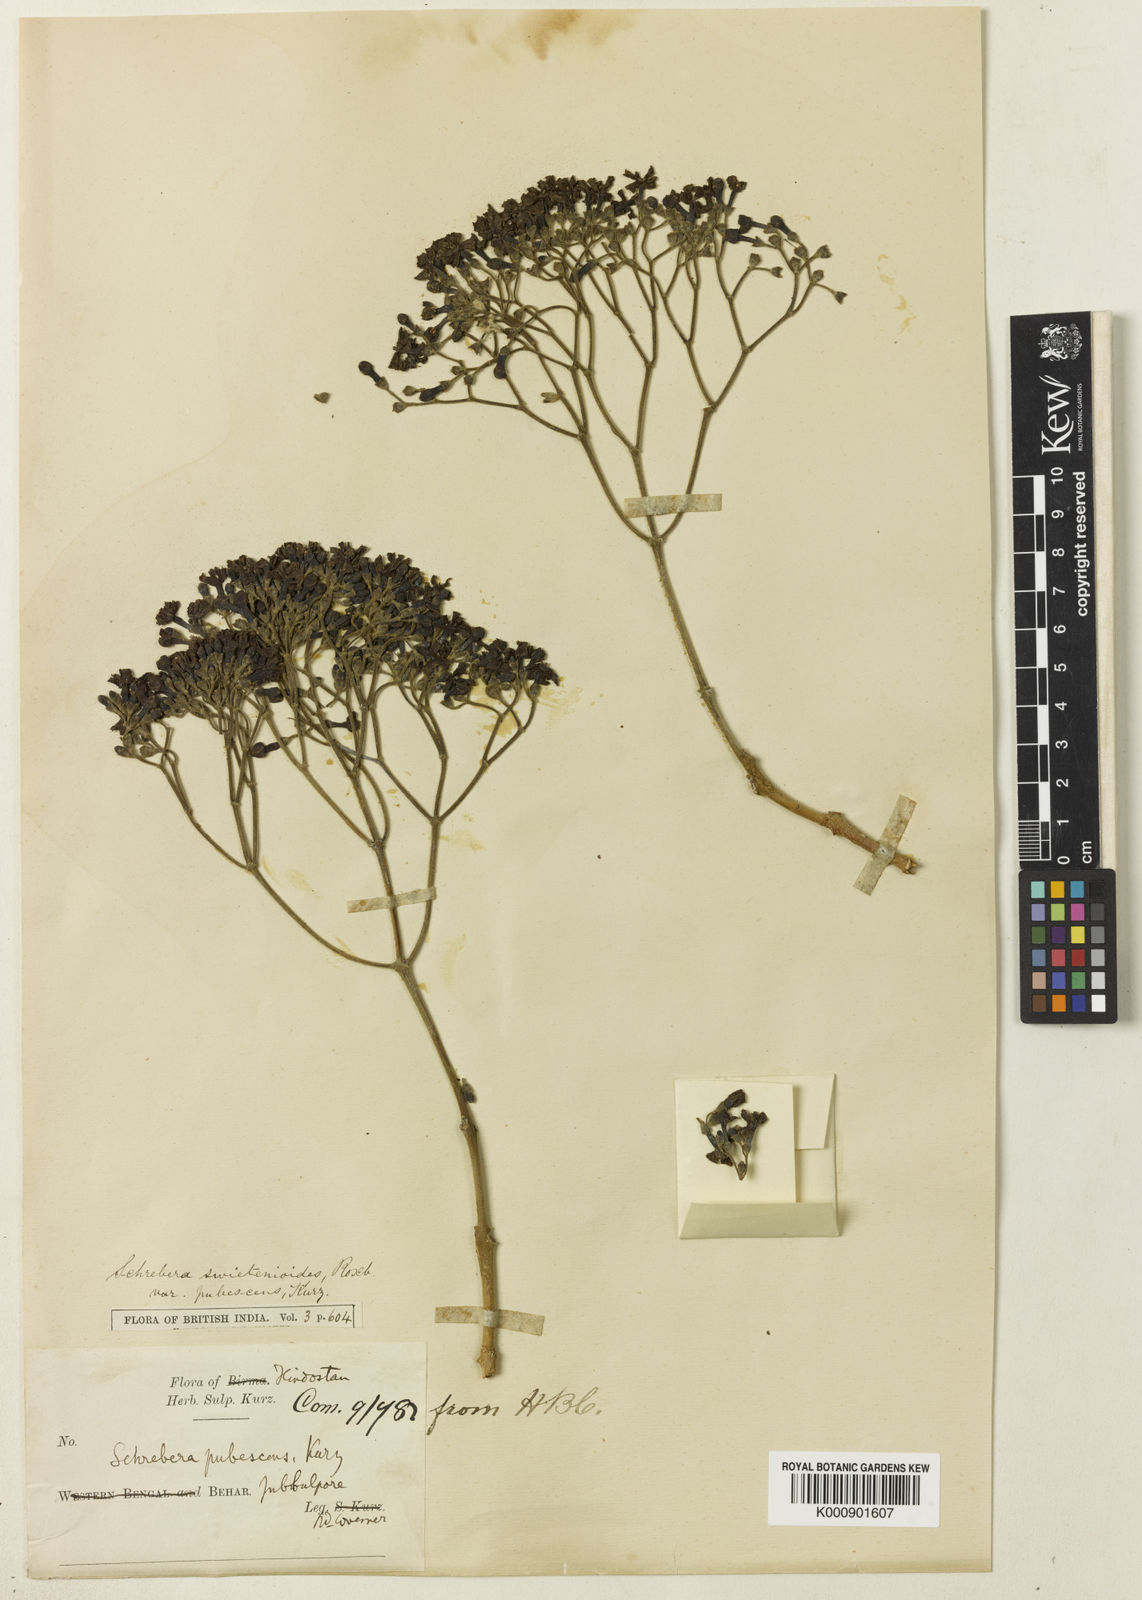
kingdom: Plantae
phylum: Tracheophyta
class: Magnoliopsida
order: Lamiales
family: Oleaceae
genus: Schrebera
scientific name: Schrebera swietenioides
